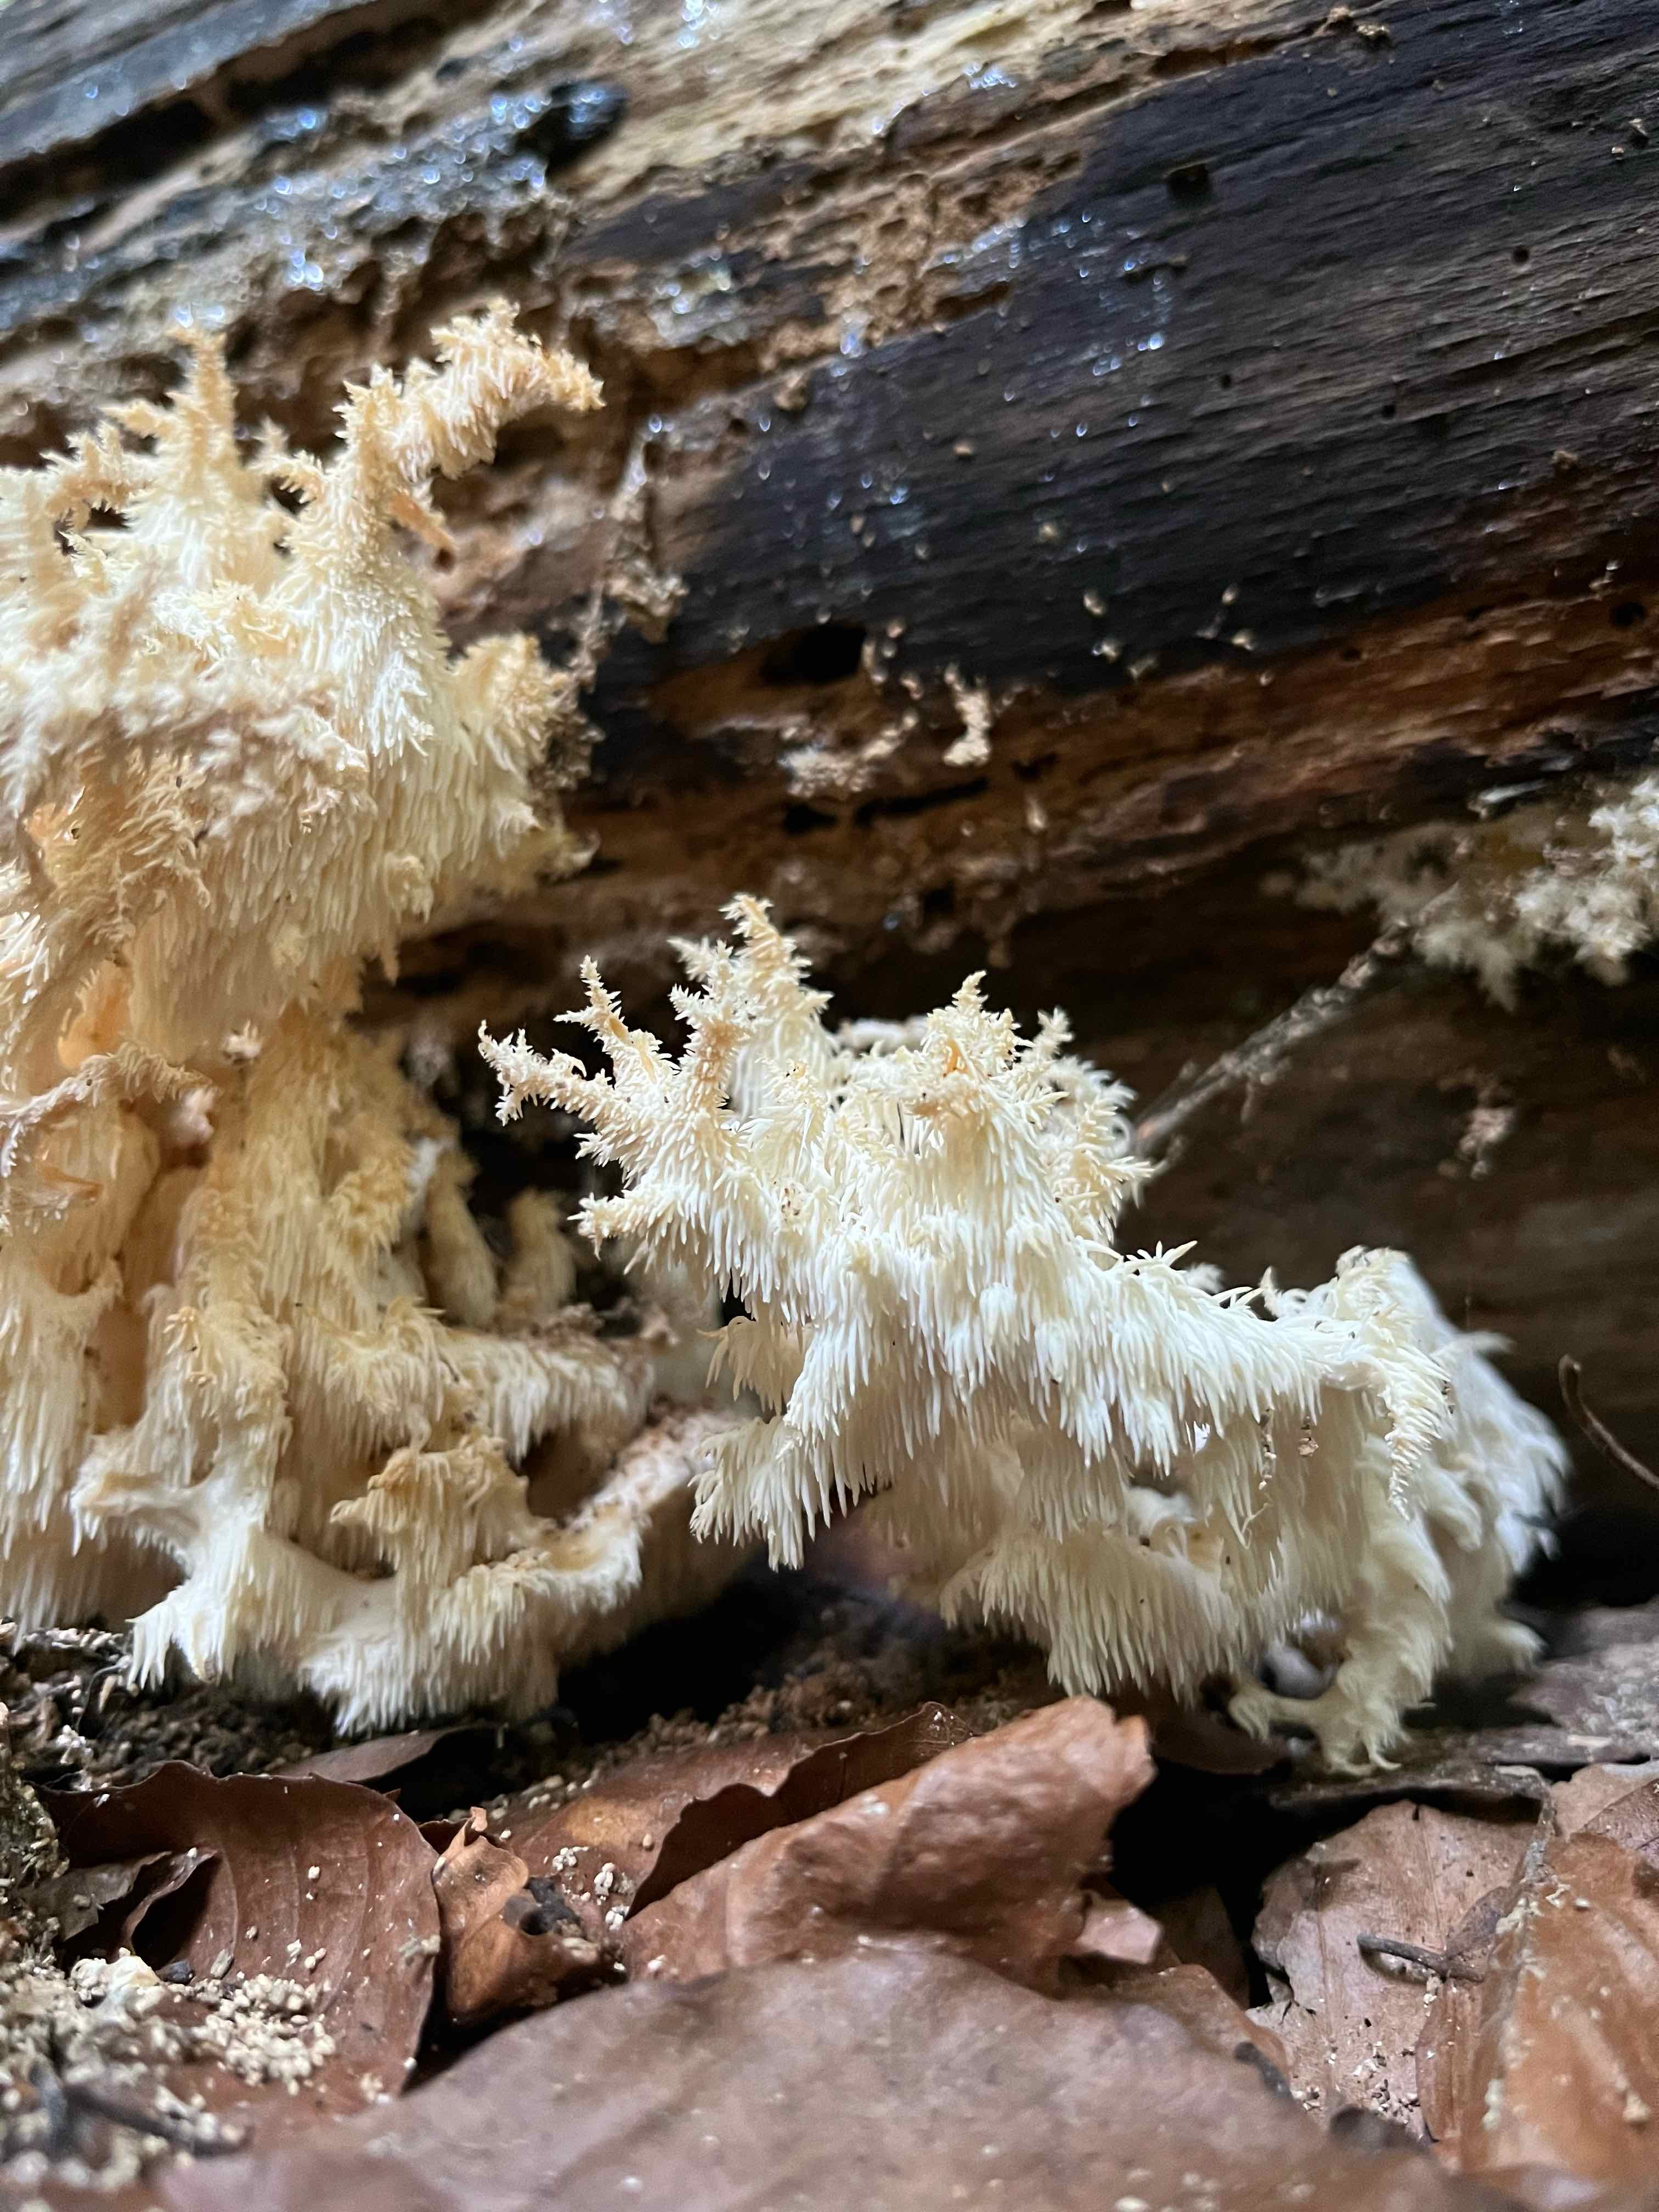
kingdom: Fungi
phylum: Basidiomycota
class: Agaricomycetes
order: Russulales
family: Hericiaceae
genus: Hericium
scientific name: Hericium coralloides
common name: koralpigsvamp
